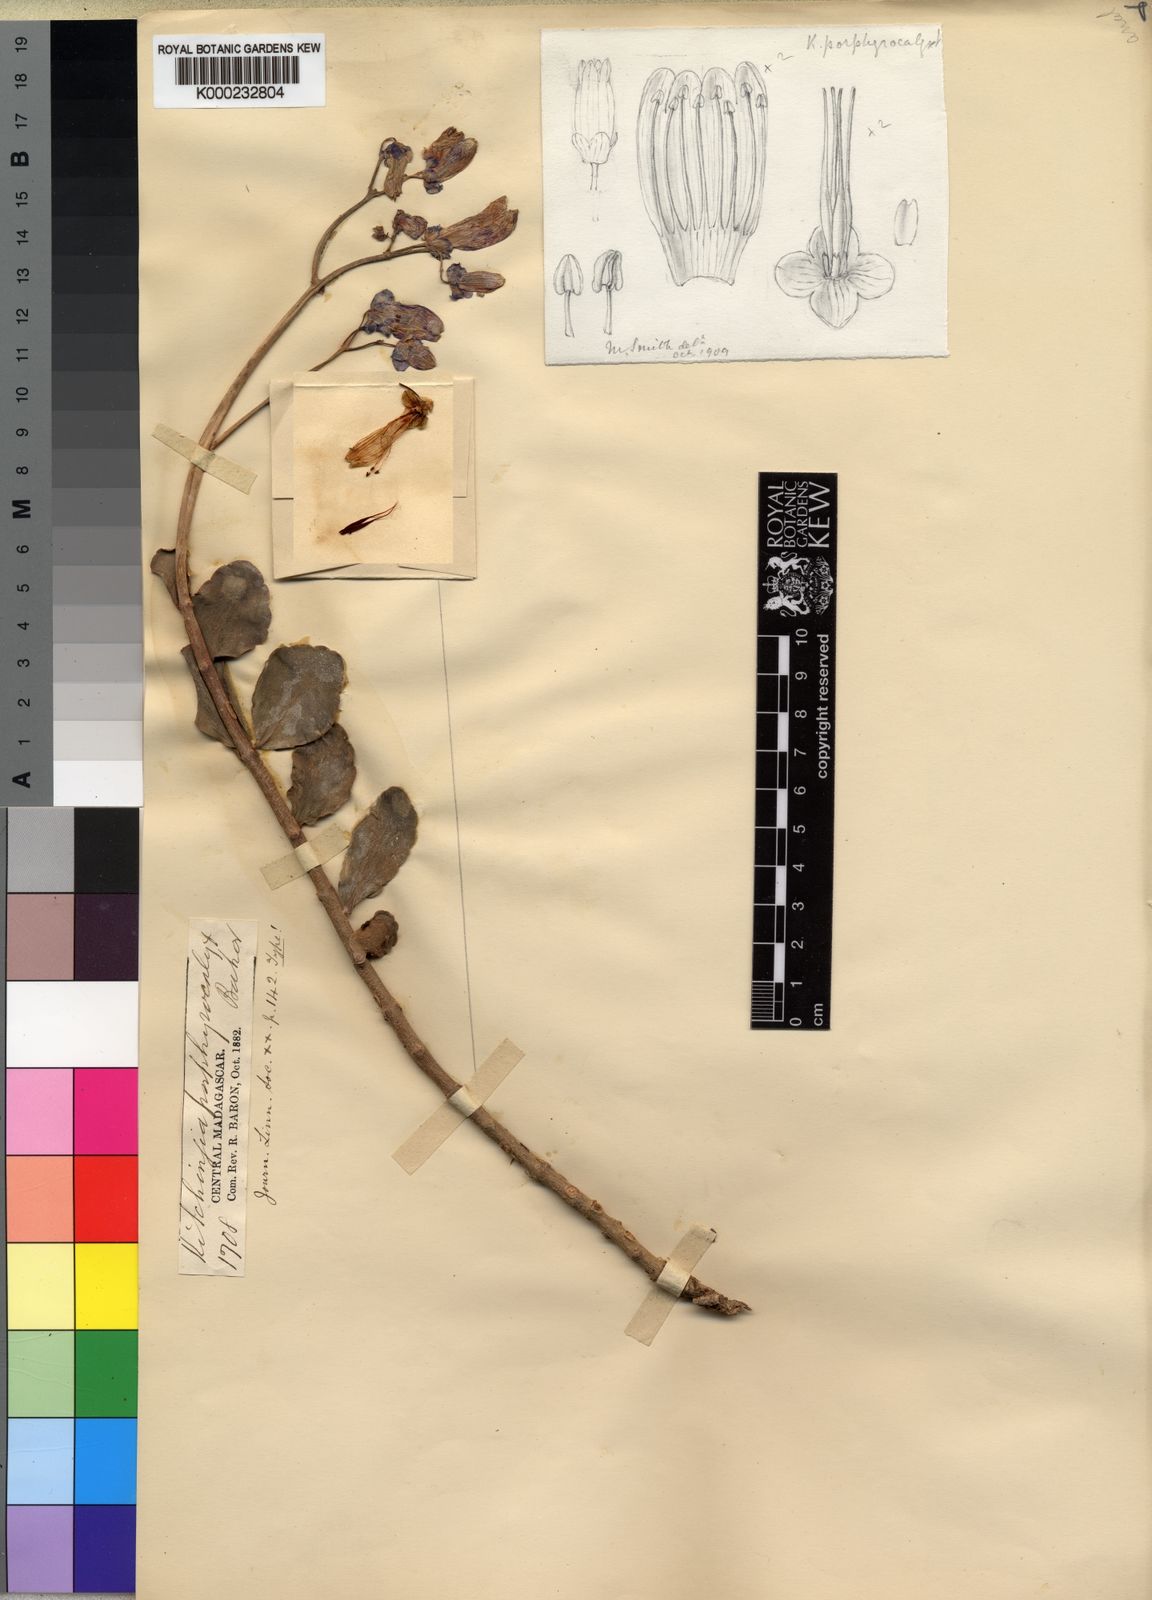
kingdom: Plantae
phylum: Tracheophyta
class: Magnoliopsida
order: Saxifragales
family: Crassulaceae
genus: Kalanchoe
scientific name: Kalanchoe porphyrocalyx
